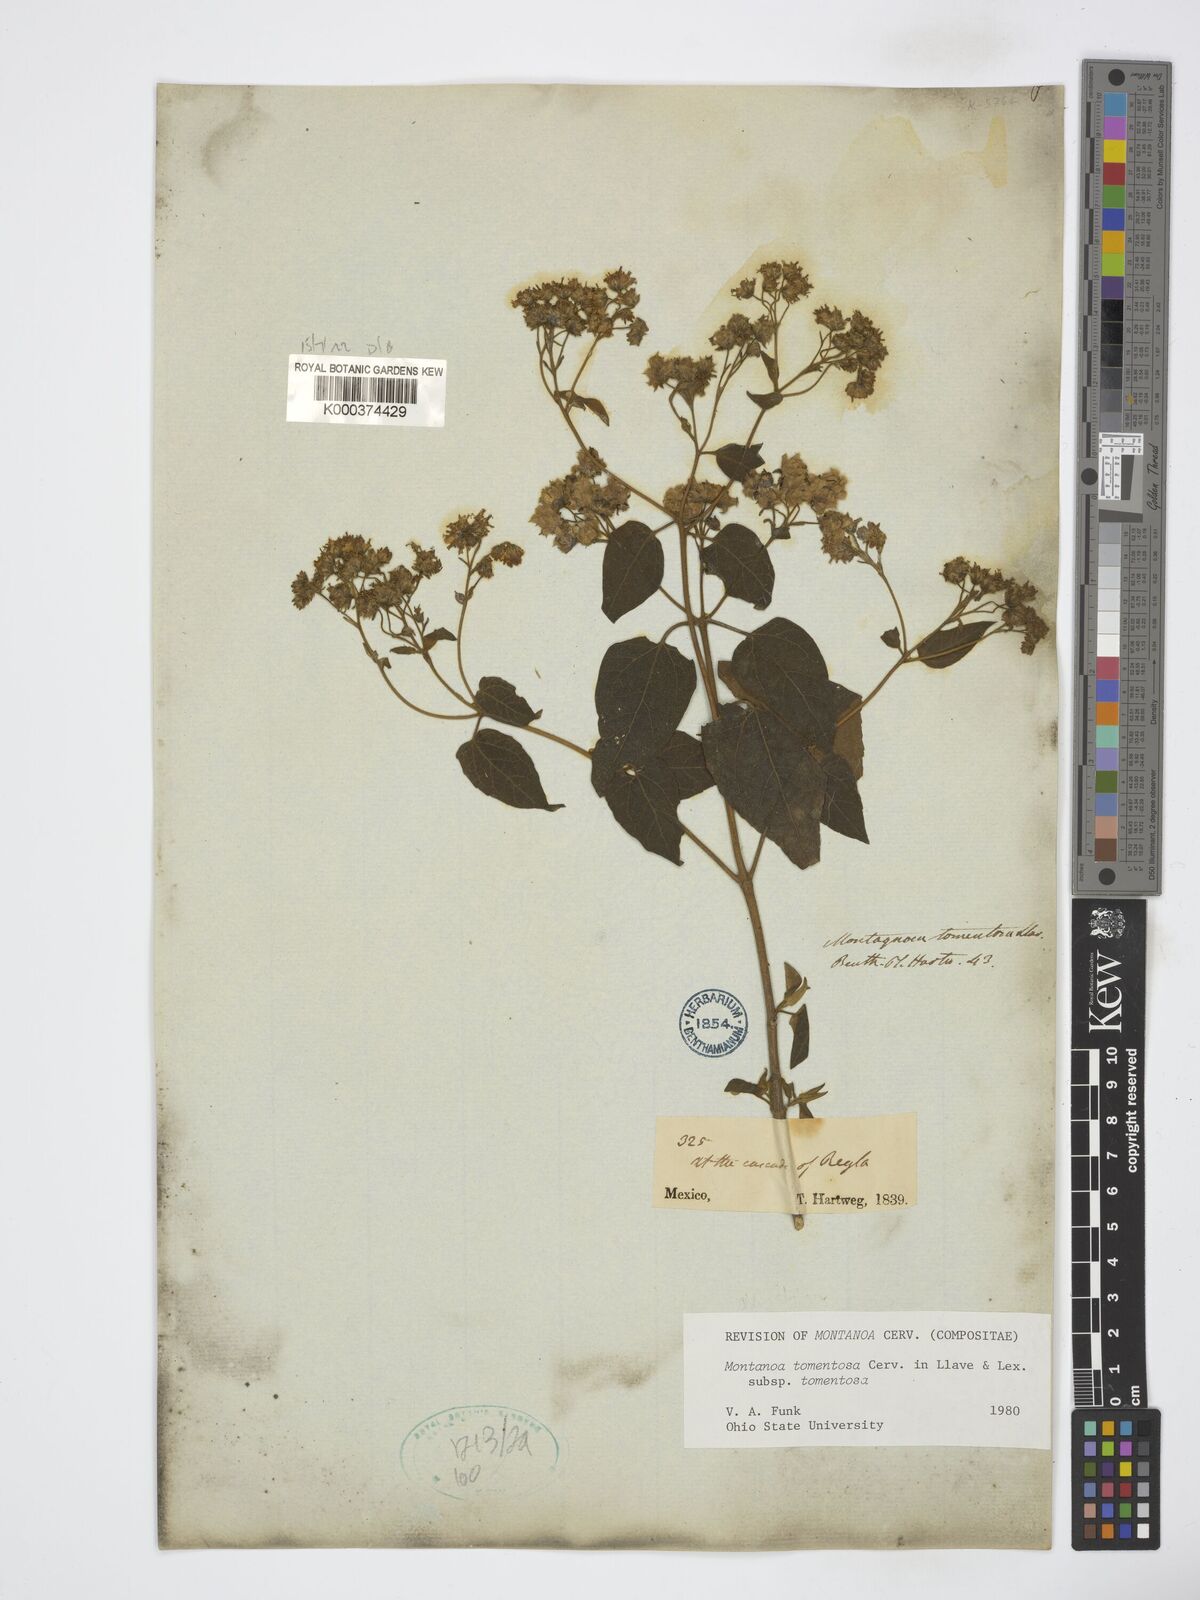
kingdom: Plantae
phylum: Tracheophyta
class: Magnoliopsida
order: Asterales
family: Asteraceae
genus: Montanoa
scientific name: Montanoa tomentosa
